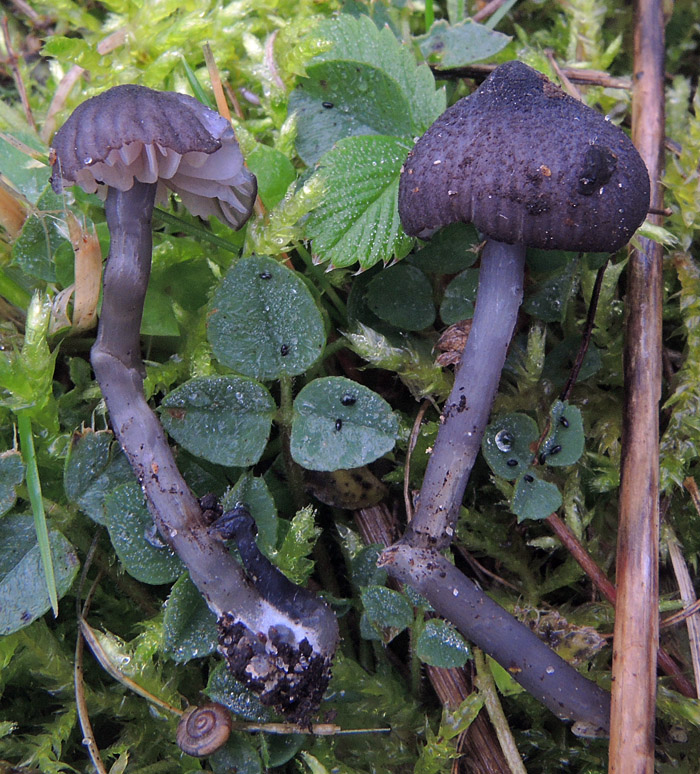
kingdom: Fungi
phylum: Basidiomycota
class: Agaricomycetes
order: Agaricales
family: Entolomataceae
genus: Entoloma
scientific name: Entoloma cyaneolilacinum
